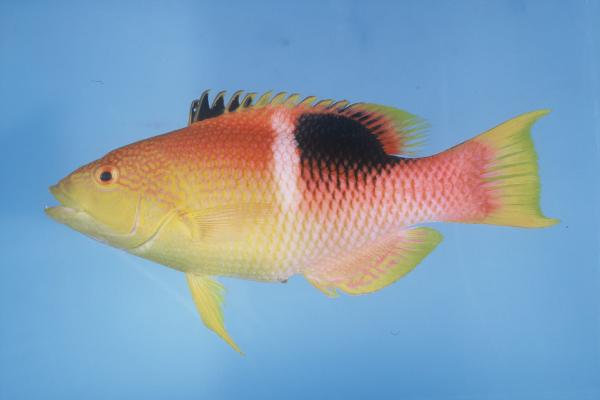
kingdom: Animalia
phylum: Chordata
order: Perciformes
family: Labridae
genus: Bodianus
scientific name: Bodianus perditio
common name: Goldspot pigfish
